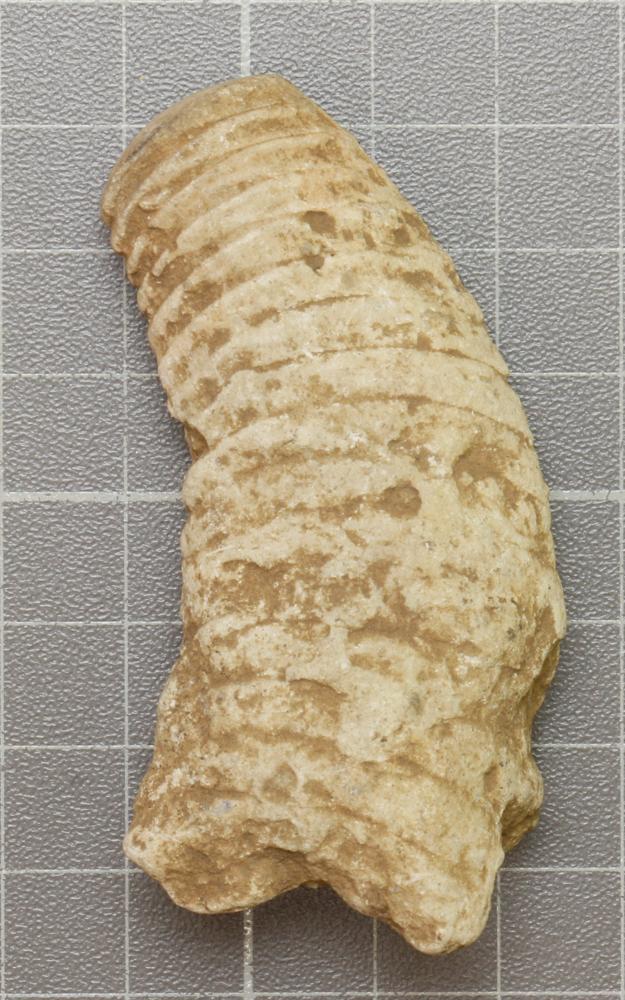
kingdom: Animalia
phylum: Mollusca
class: Cephalopoda
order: Nautilida
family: Nautilidae
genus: Richardsonoceras
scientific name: Richardsonoceras sinuososeptatum
